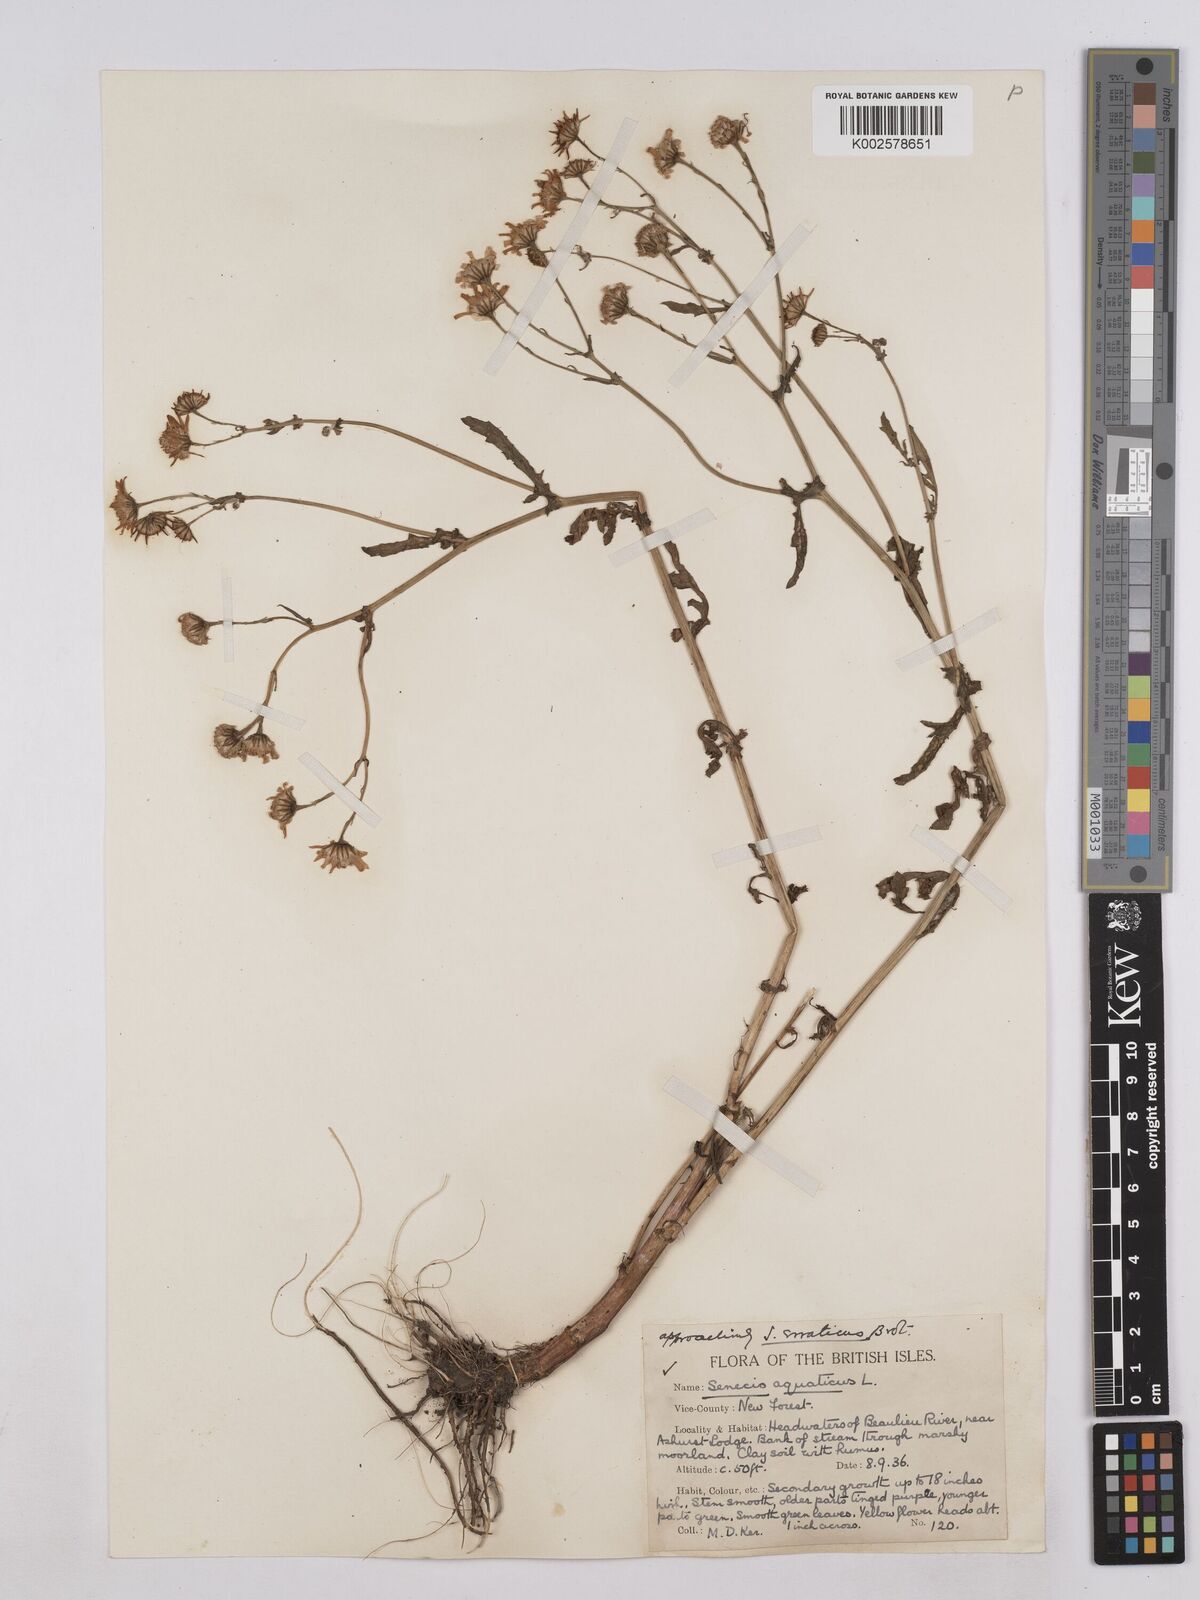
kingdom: Plantae
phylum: Tracheophyta
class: Magnoliopsida
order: Asterales
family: Asteraceae
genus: Jacobaea
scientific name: Jacobaea aquatica
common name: Water ragwort
